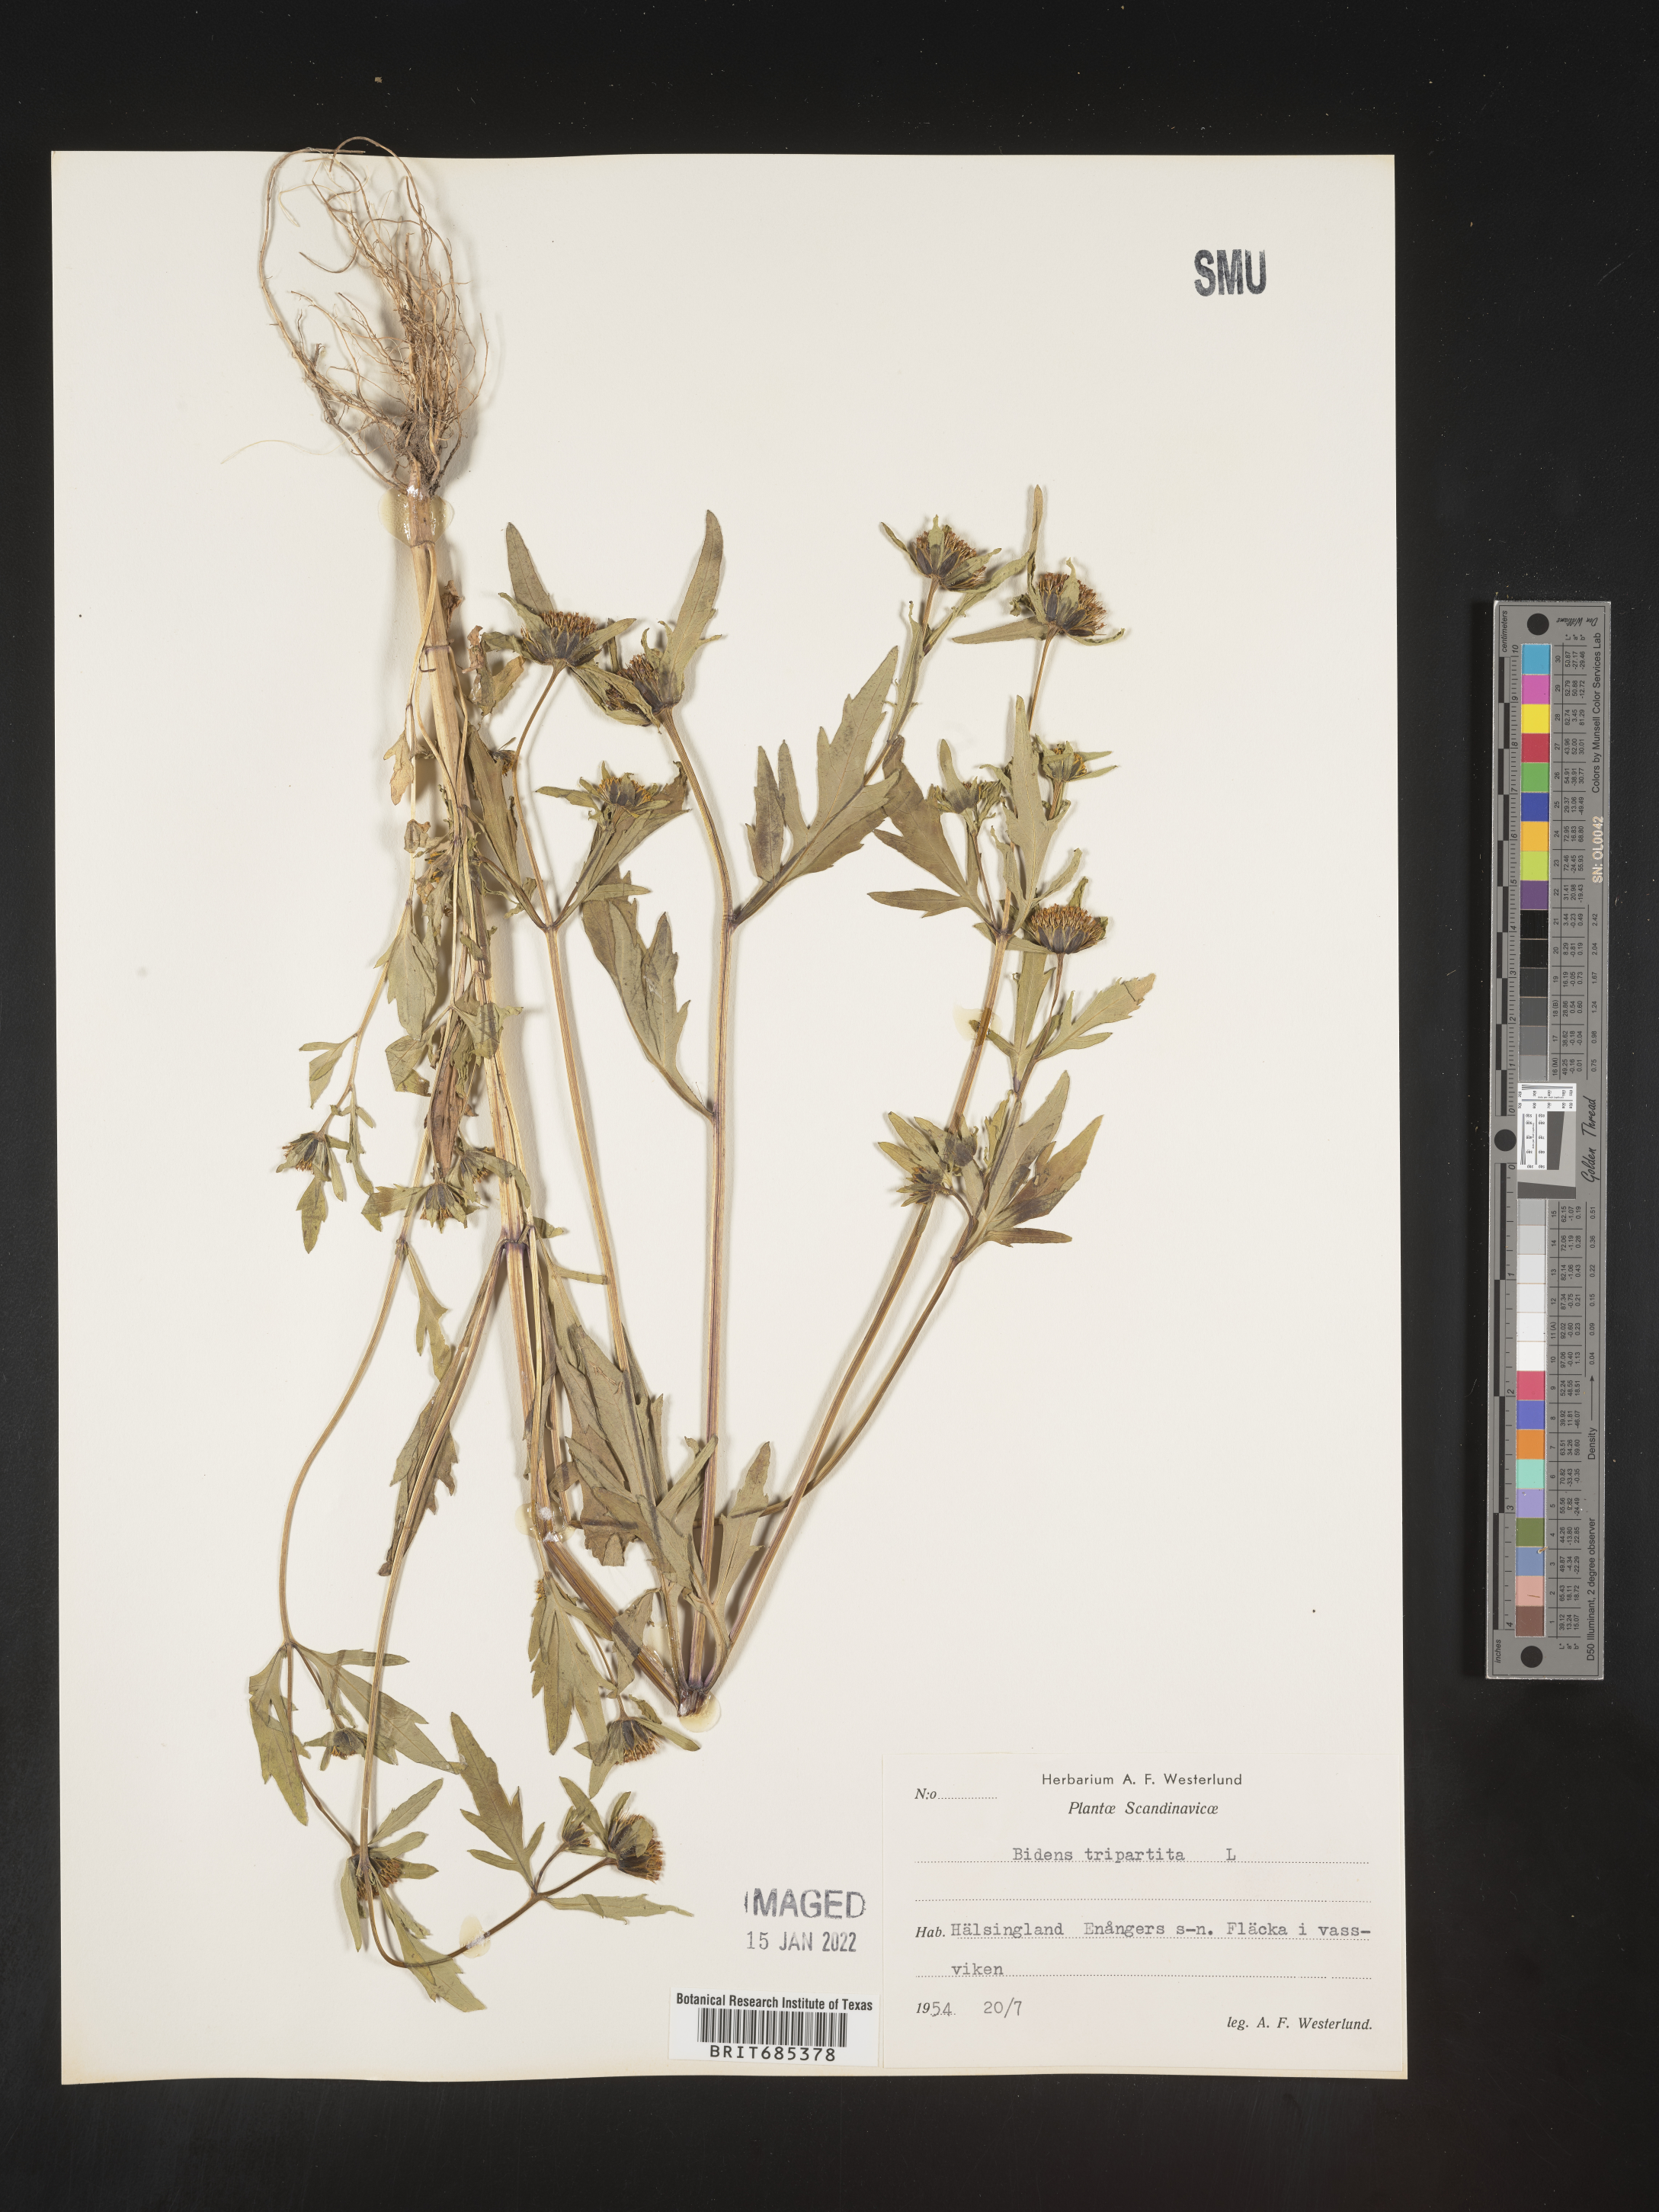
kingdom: Plantae
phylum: Tracheophyta
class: Magnoliopsida
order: Asterales
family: Asteraceae
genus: Bidens
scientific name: Bidens
